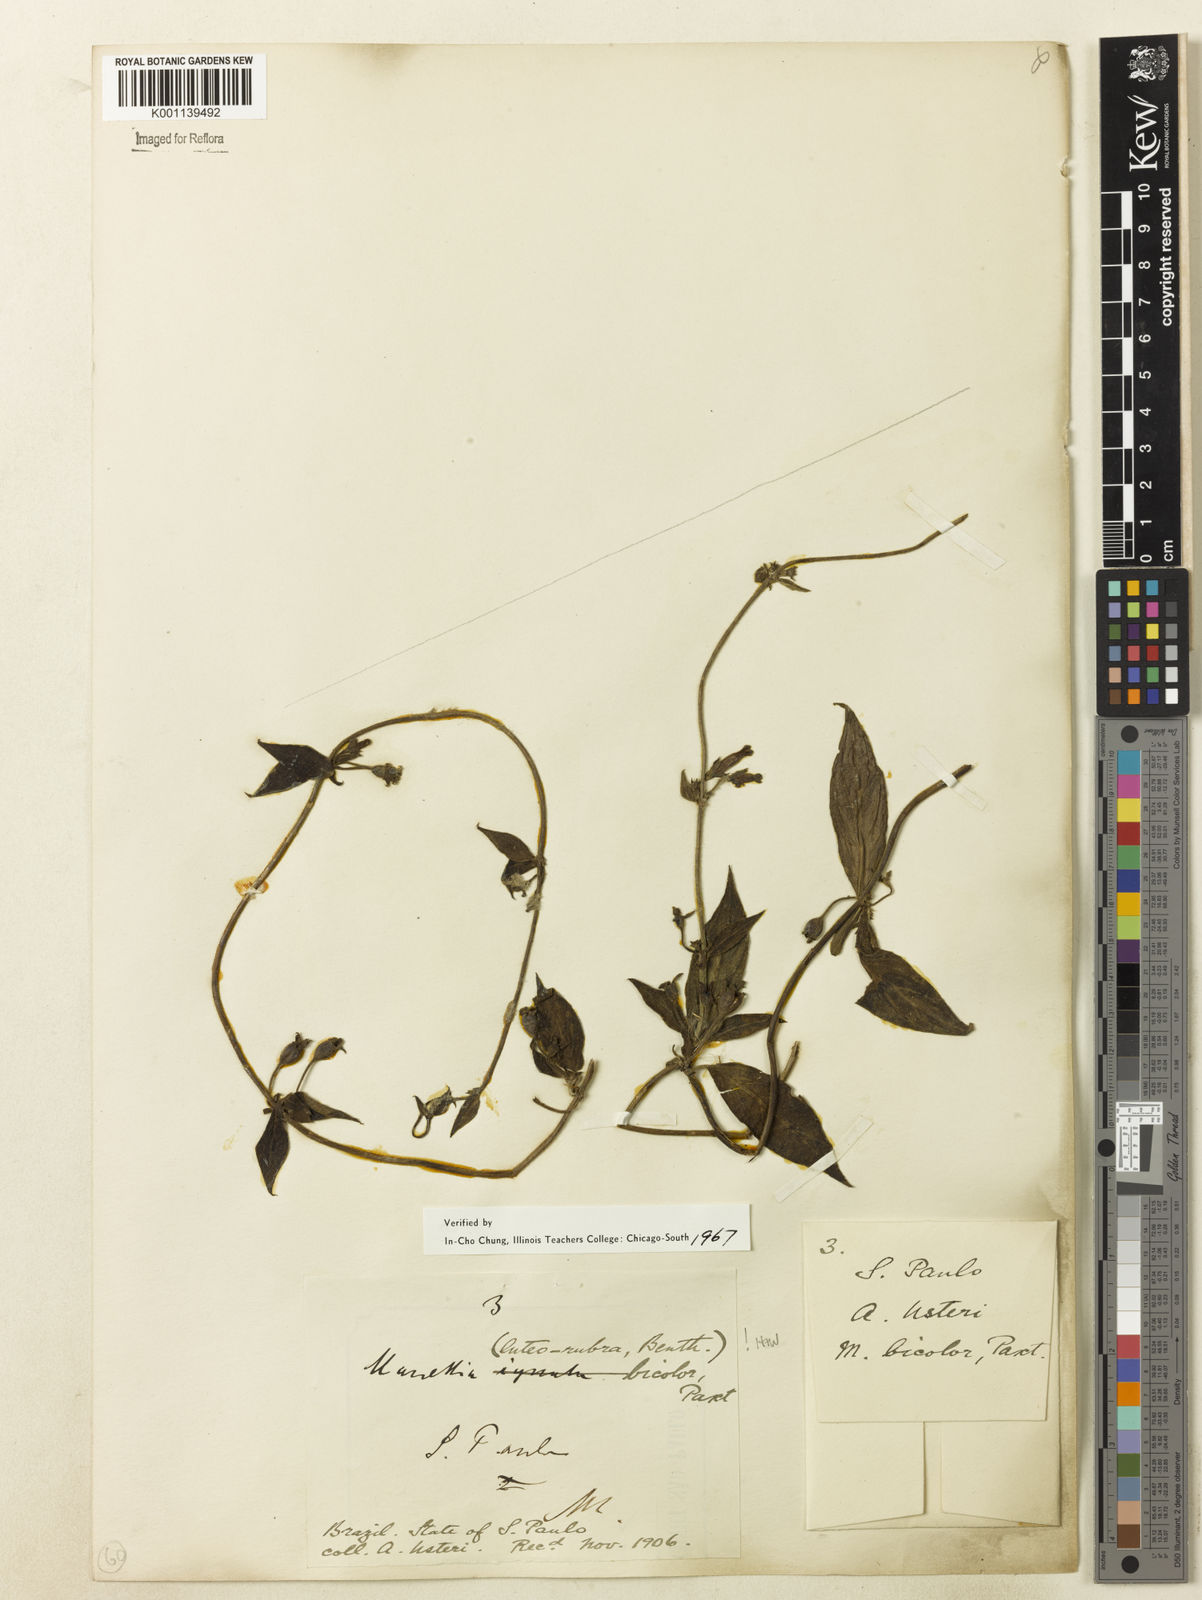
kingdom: Plantae
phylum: Tracheophyta
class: Magnoliopsida
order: Gentianales
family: Rubiaceae
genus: Manettia
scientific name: Manettia luteorubra
